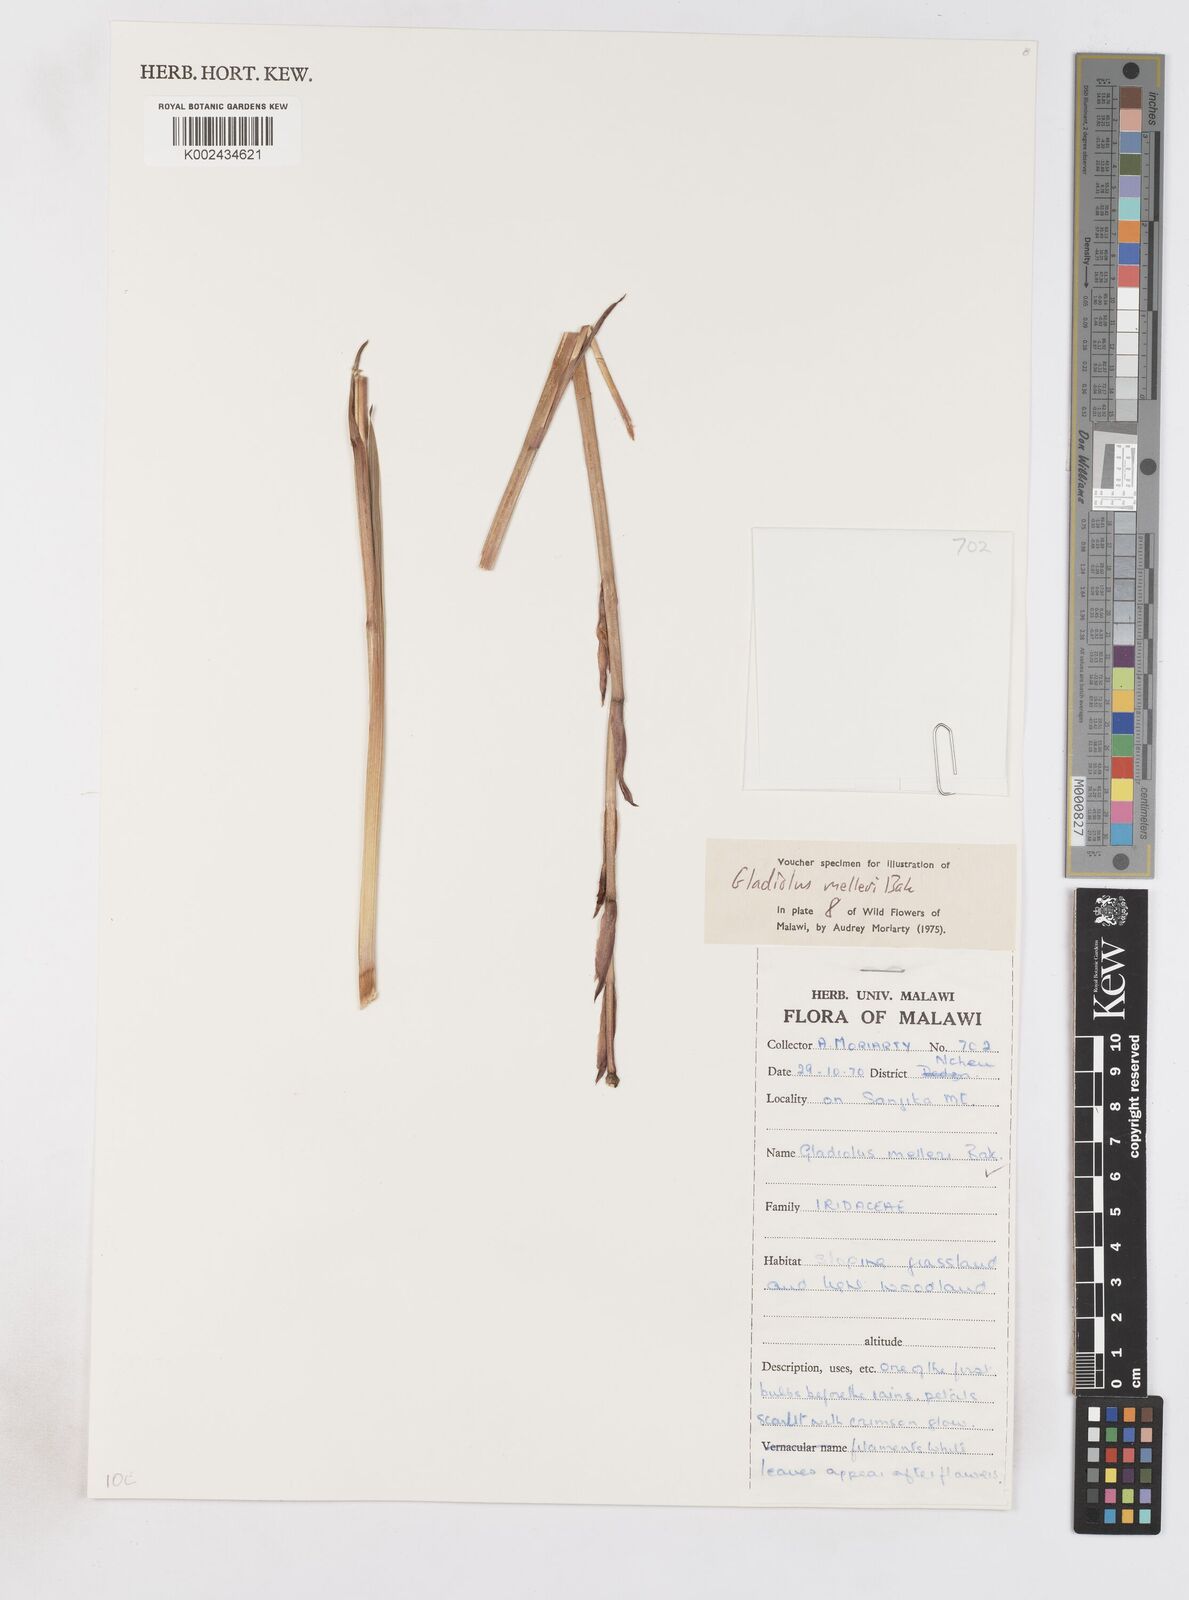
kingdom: Plantae
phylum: Tracheophyta
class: Liliopsida
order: Asparagales
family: Iridaceae
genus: Gladiolus
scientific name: Gladiolus melleri
